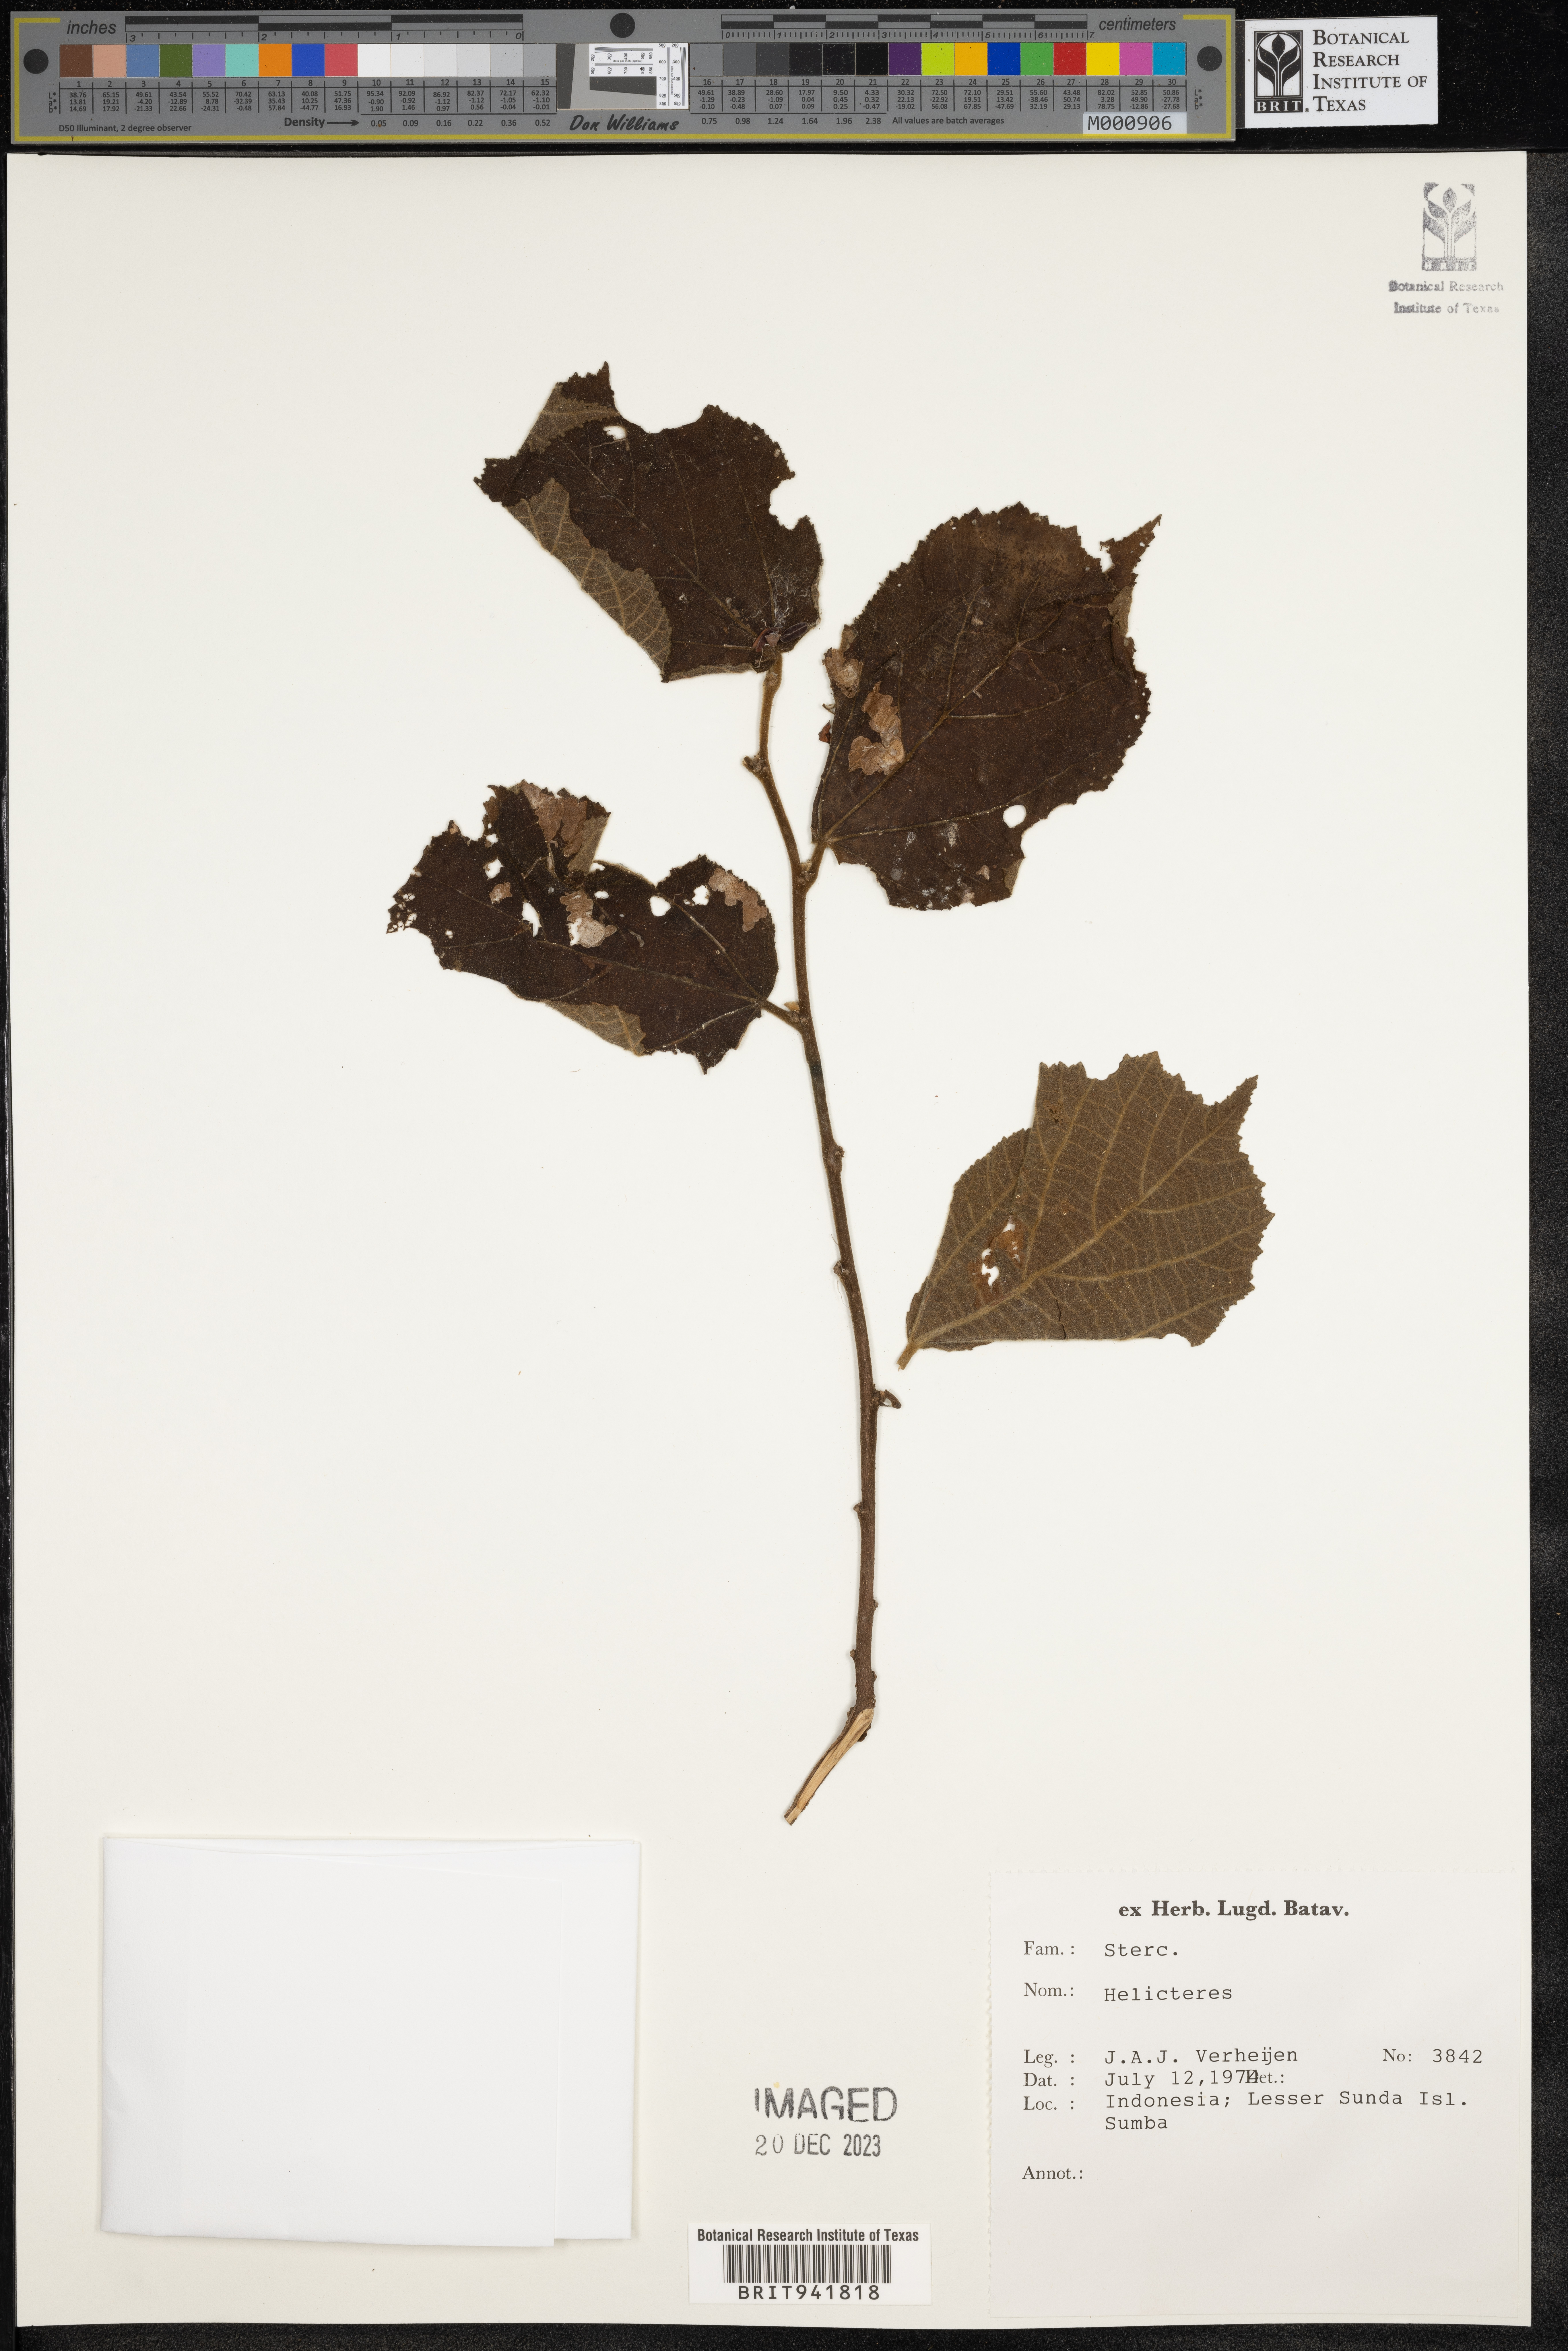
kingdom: Plantae
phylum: Tracheophyta
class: Magnoliopsida
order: Malvales
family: Malvaceae
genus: Helicteres
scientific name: Helicteres
